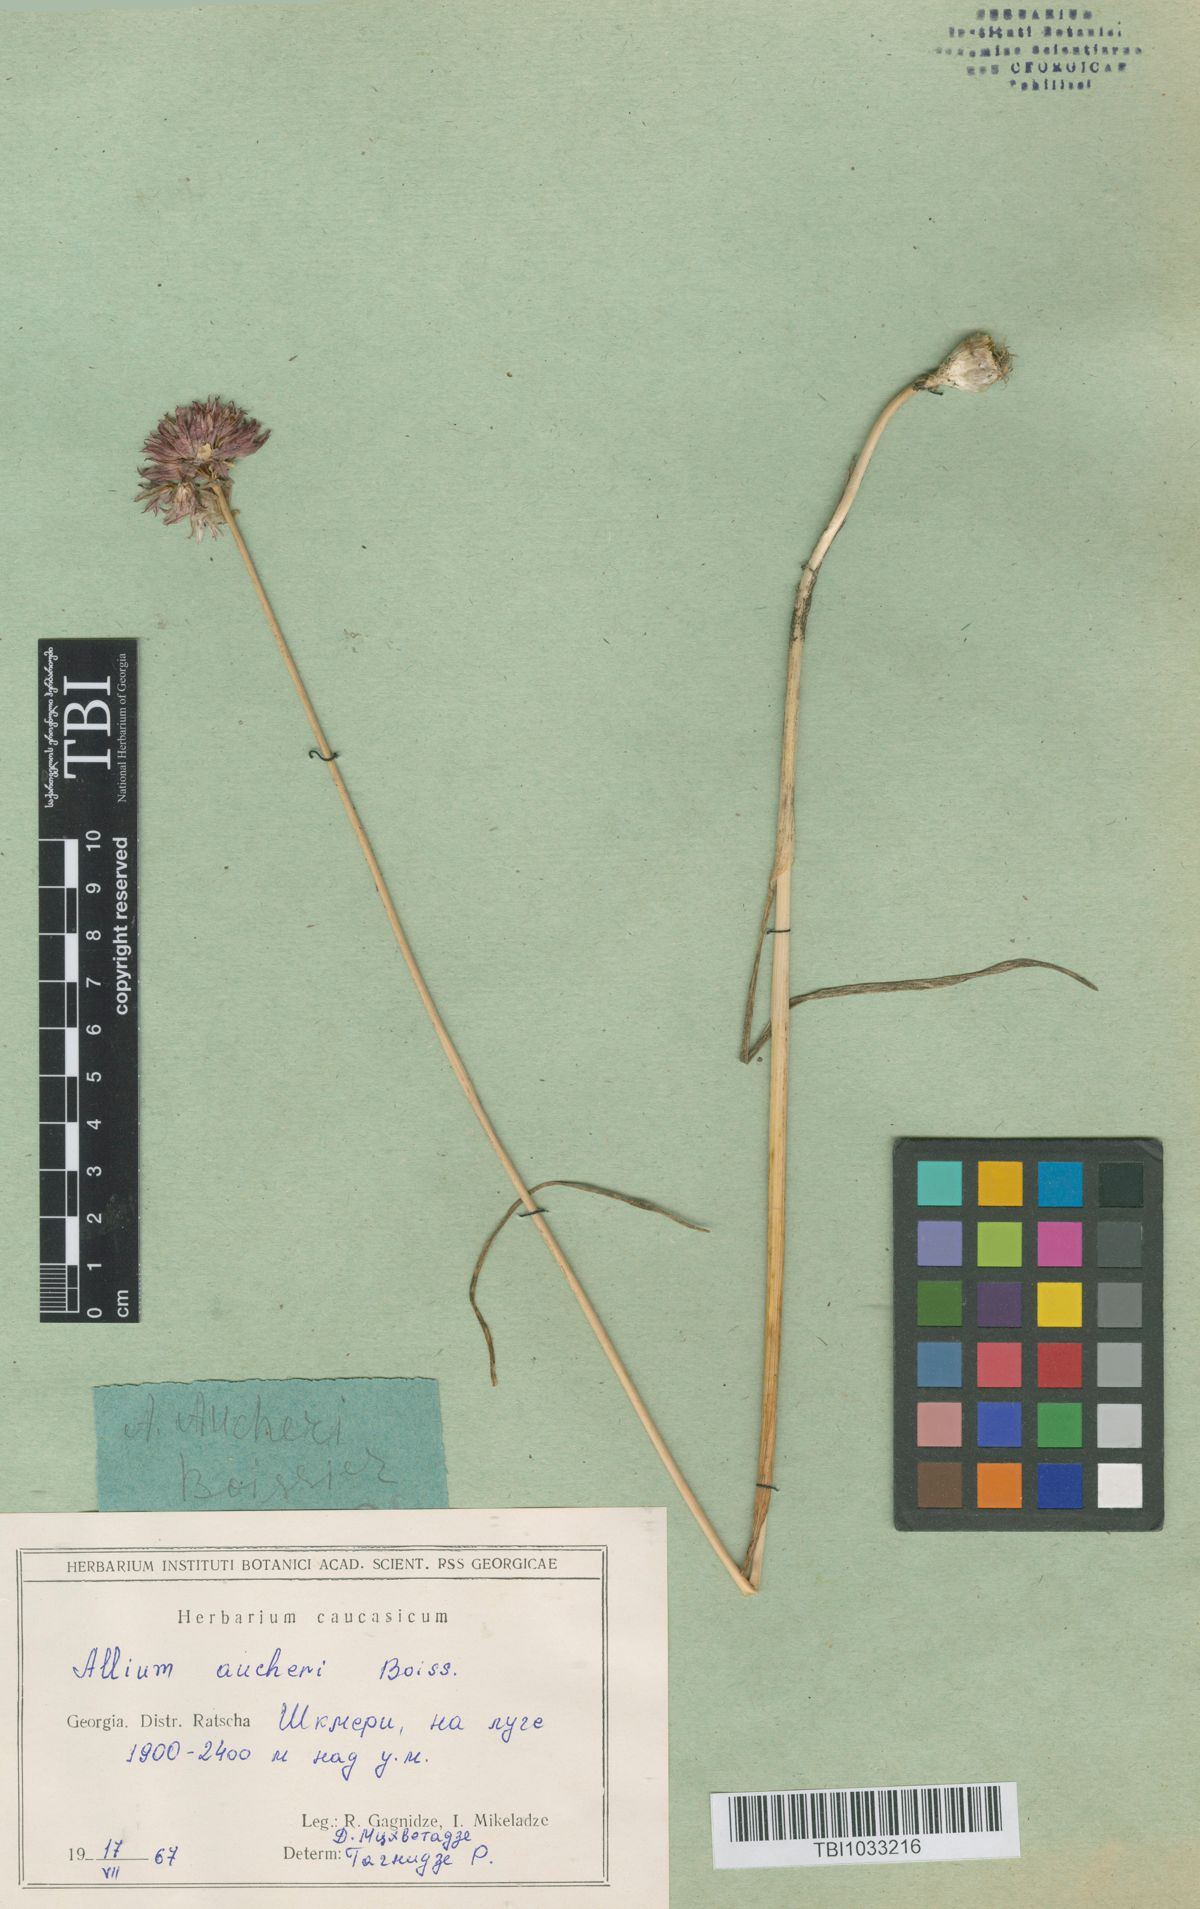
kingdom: Plantae
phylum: Tracheophyta
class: Liliopsida
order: Asparagales
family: Amaryllidaceae
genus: Allium
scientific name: Allium aucheri
